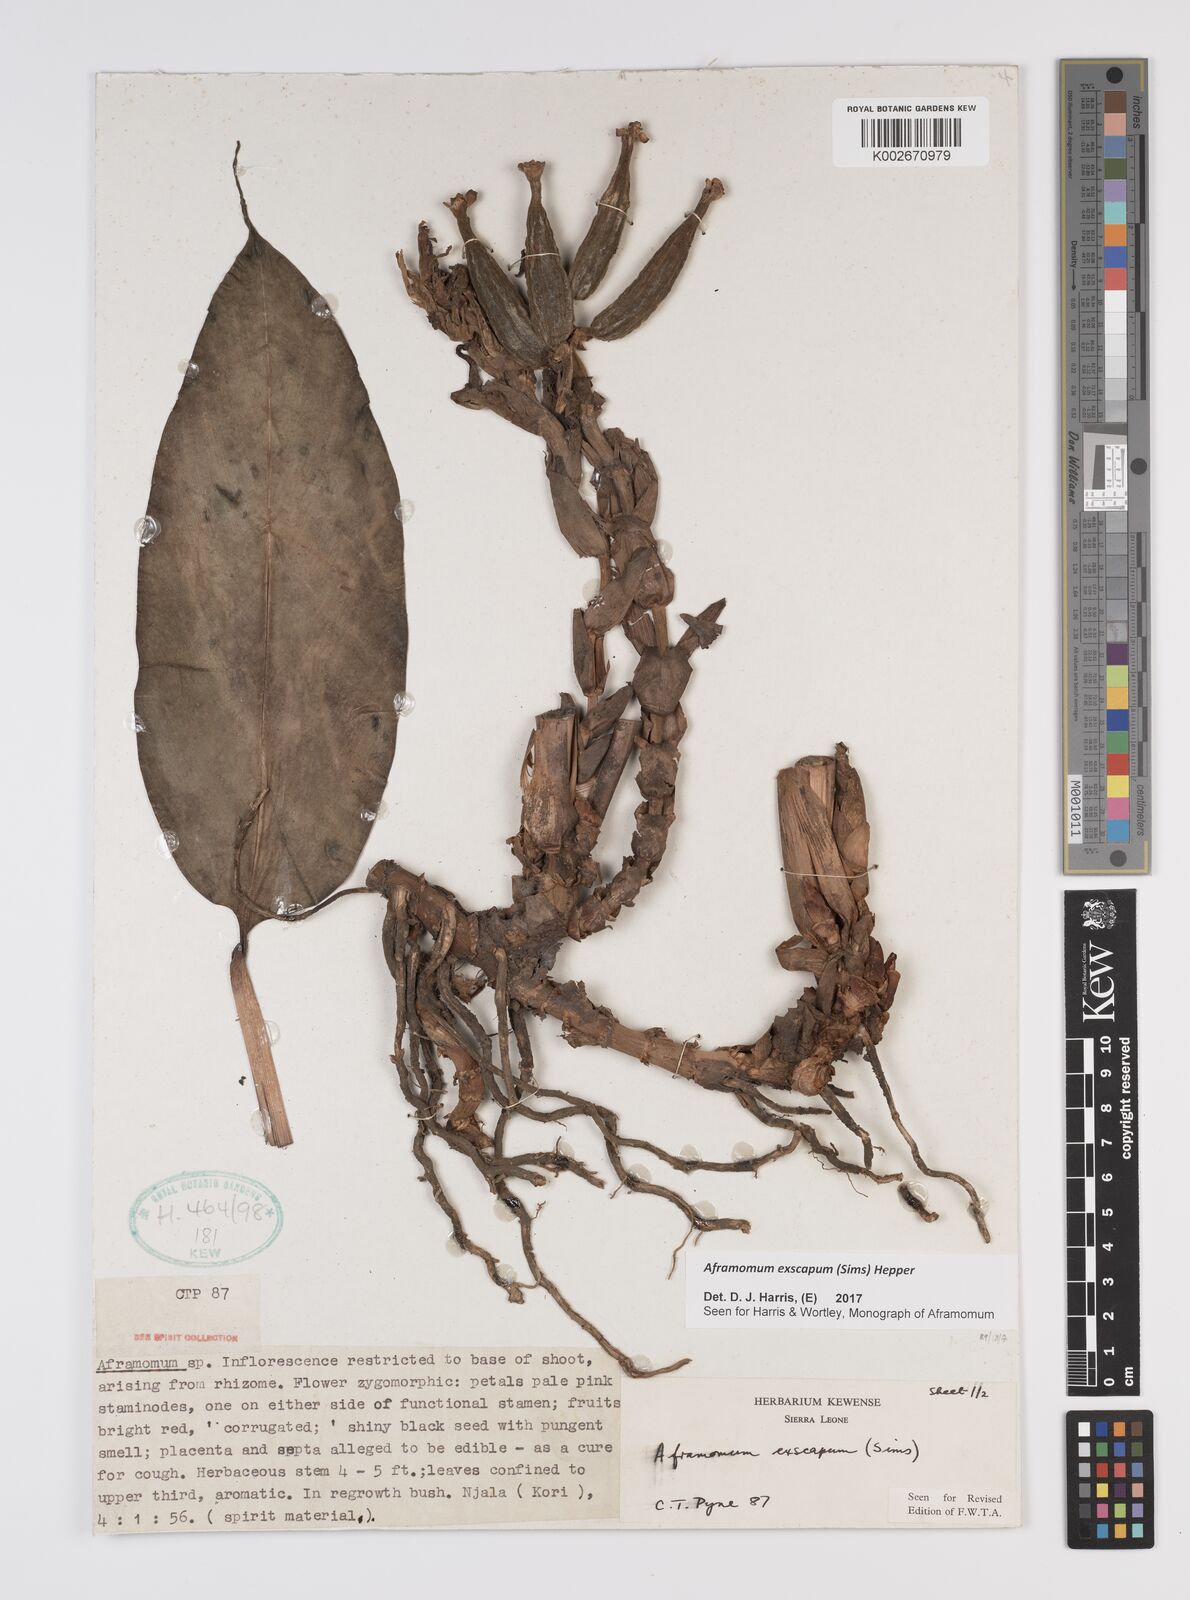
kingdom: Plantae
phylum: Tracheophyta
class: Liliopsida
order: Zingiberales
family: Zingiberaceae
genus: Aframomum
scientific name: Aframomum exscapum
